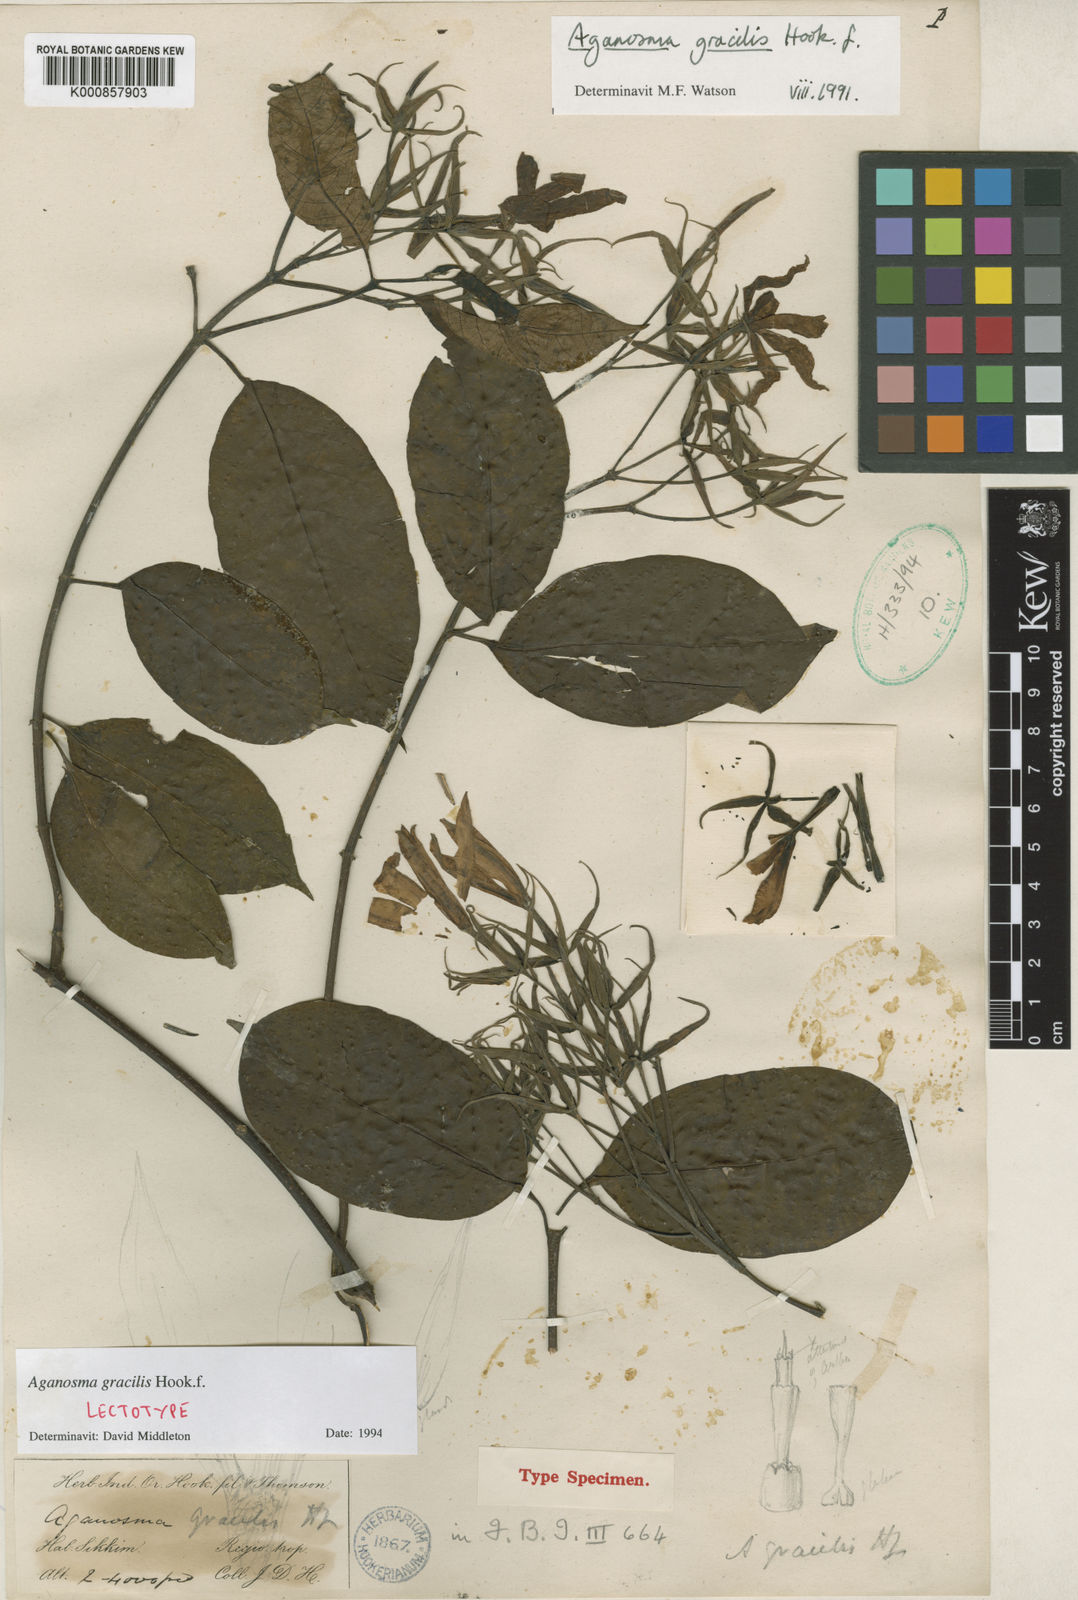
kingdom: Plantae
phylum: Tracheophyta
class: Magnoliopsida
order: Gentianales
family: Apocynaceae
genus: Aganosma
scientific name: Aganosma gracilis
